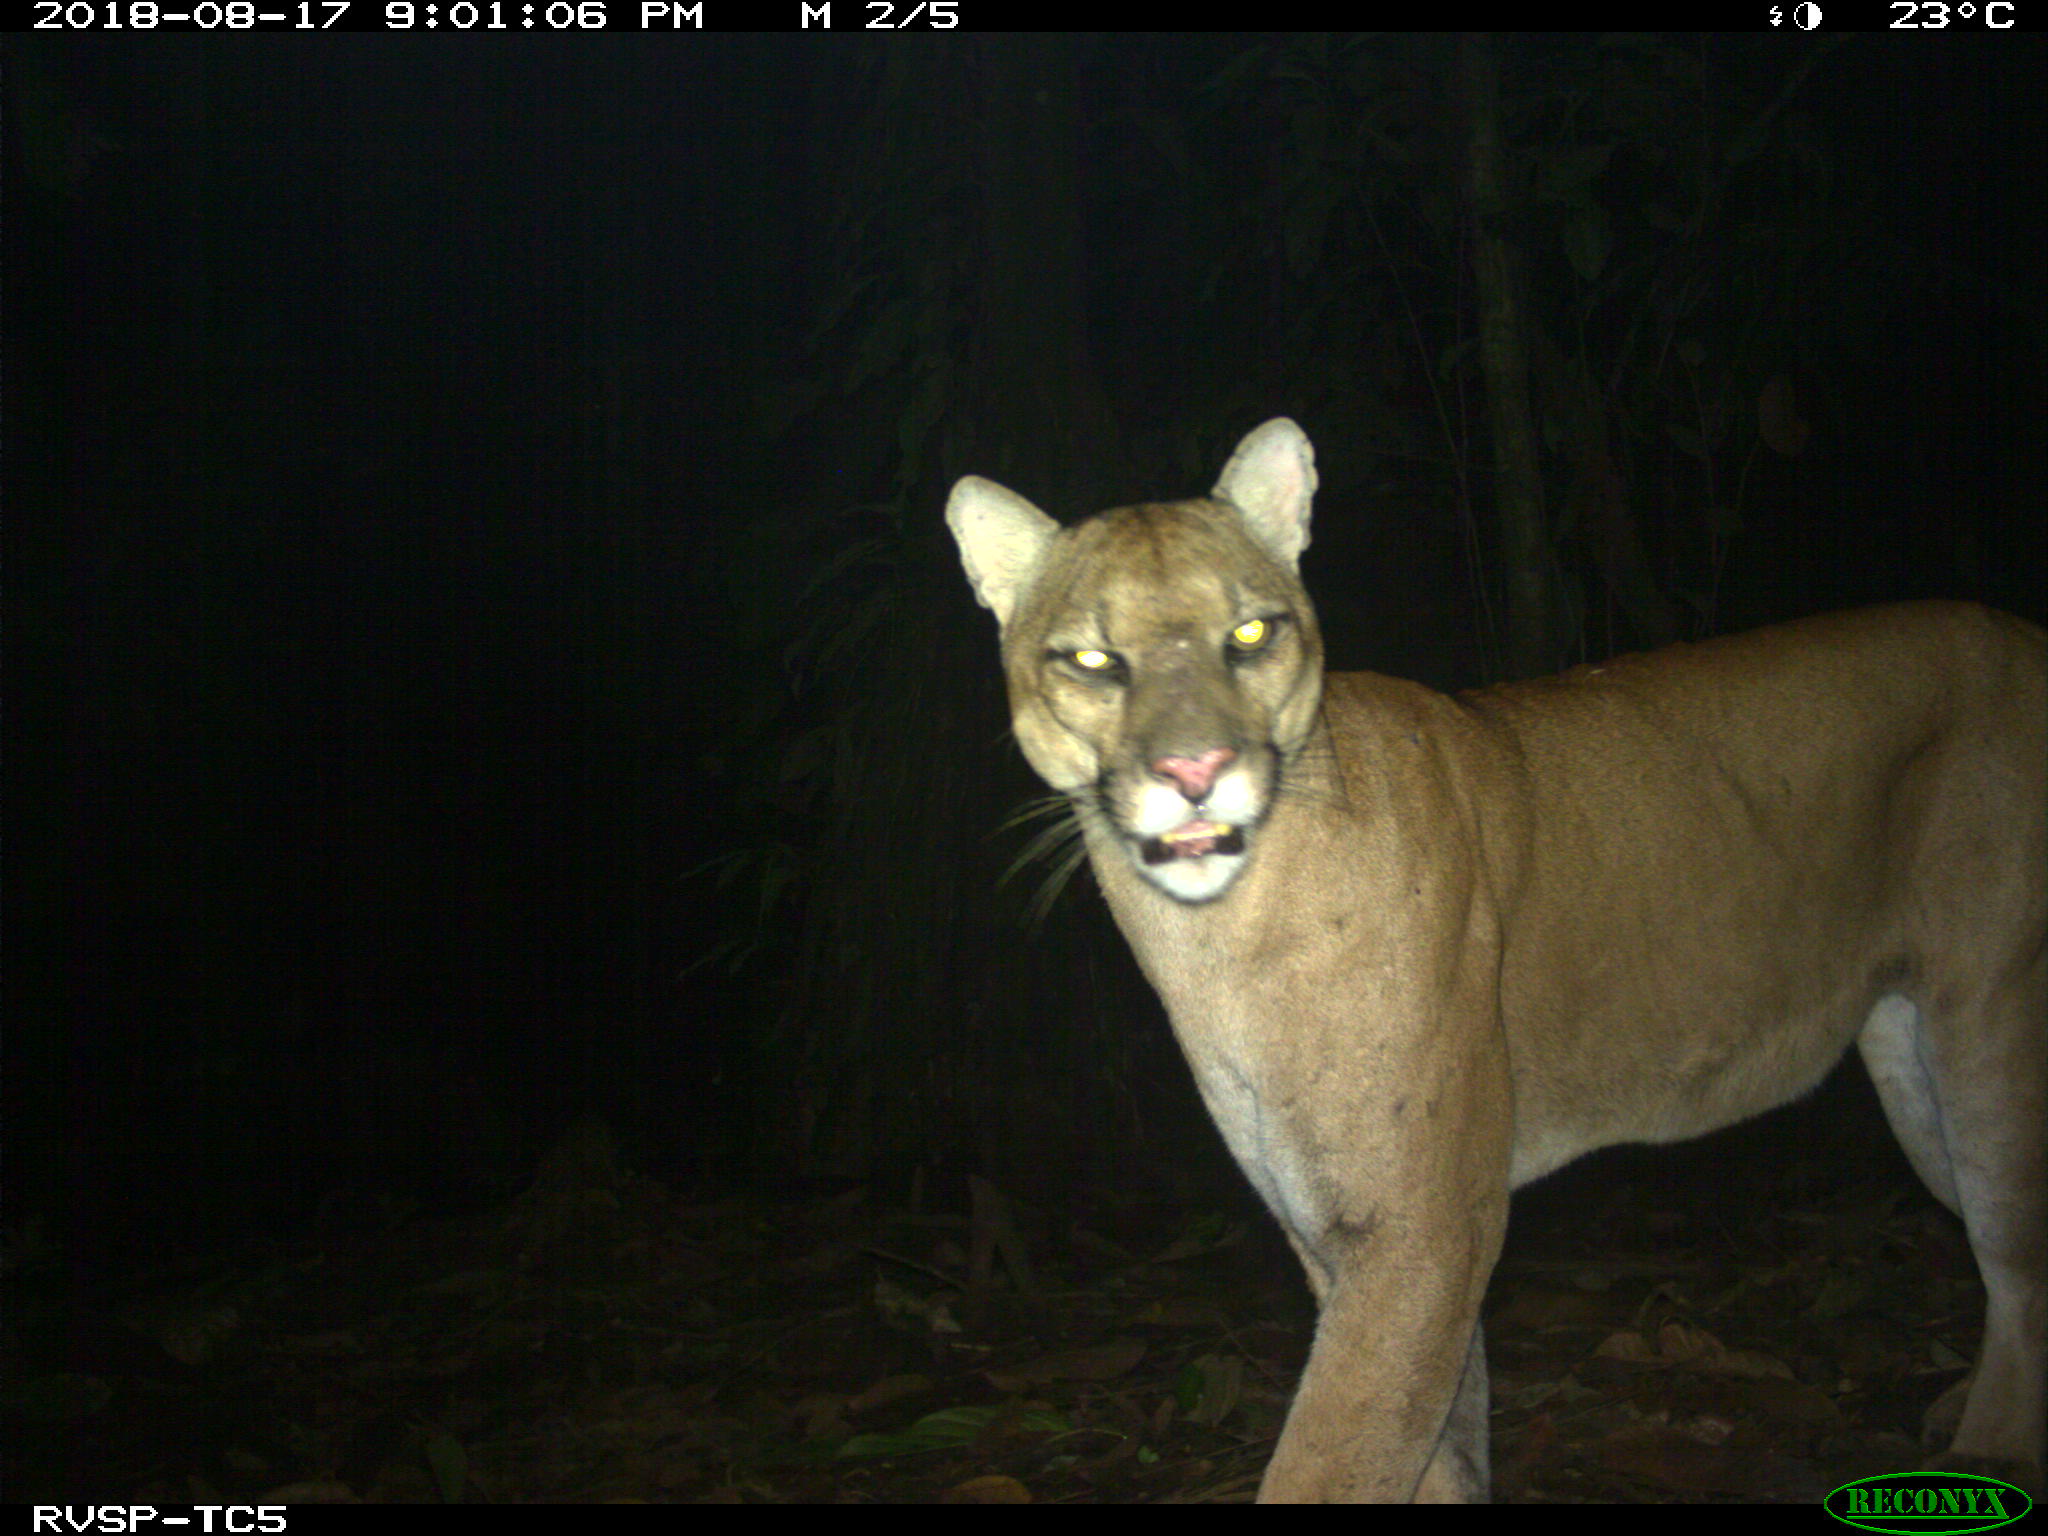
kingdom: Animalia
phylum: Chordata
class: Mammalia
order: Carnivora
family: Felidae
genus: Puma
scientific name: Puma concolor
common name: Puma
